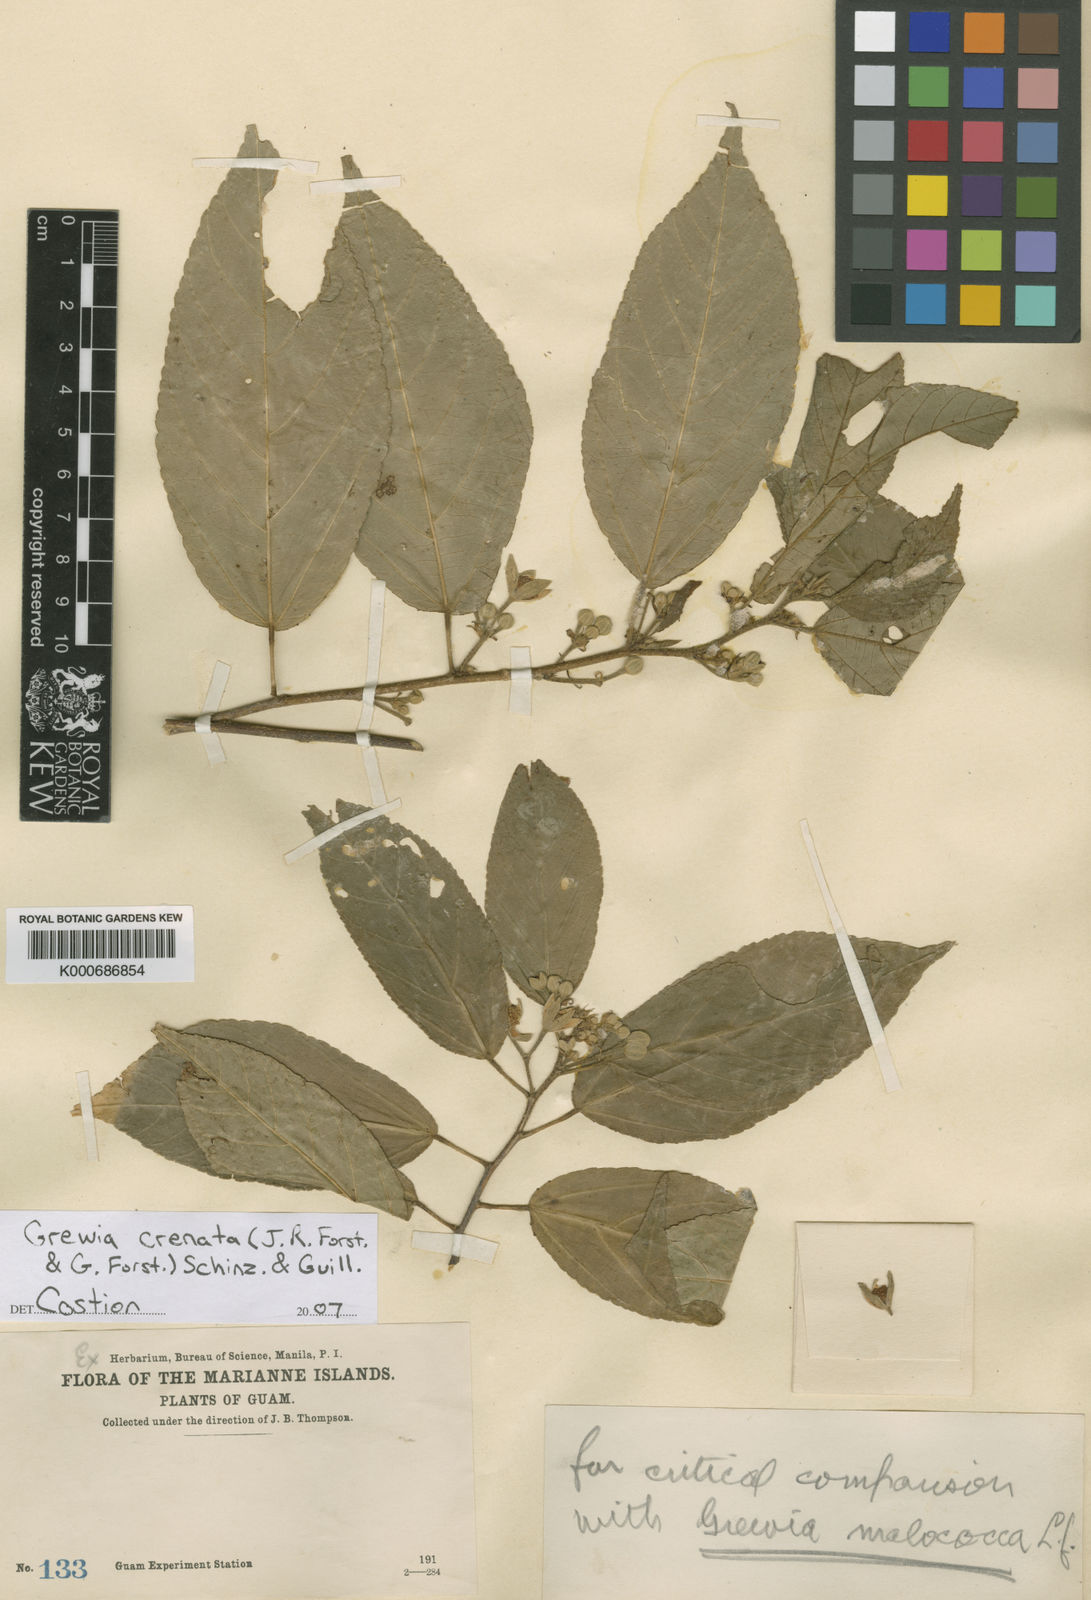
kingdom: Plantae
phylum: Tracheophyta
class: Magnoliopsida
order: Malvales
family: Malvaceae
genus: Grewia
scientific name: Grewia crenata
